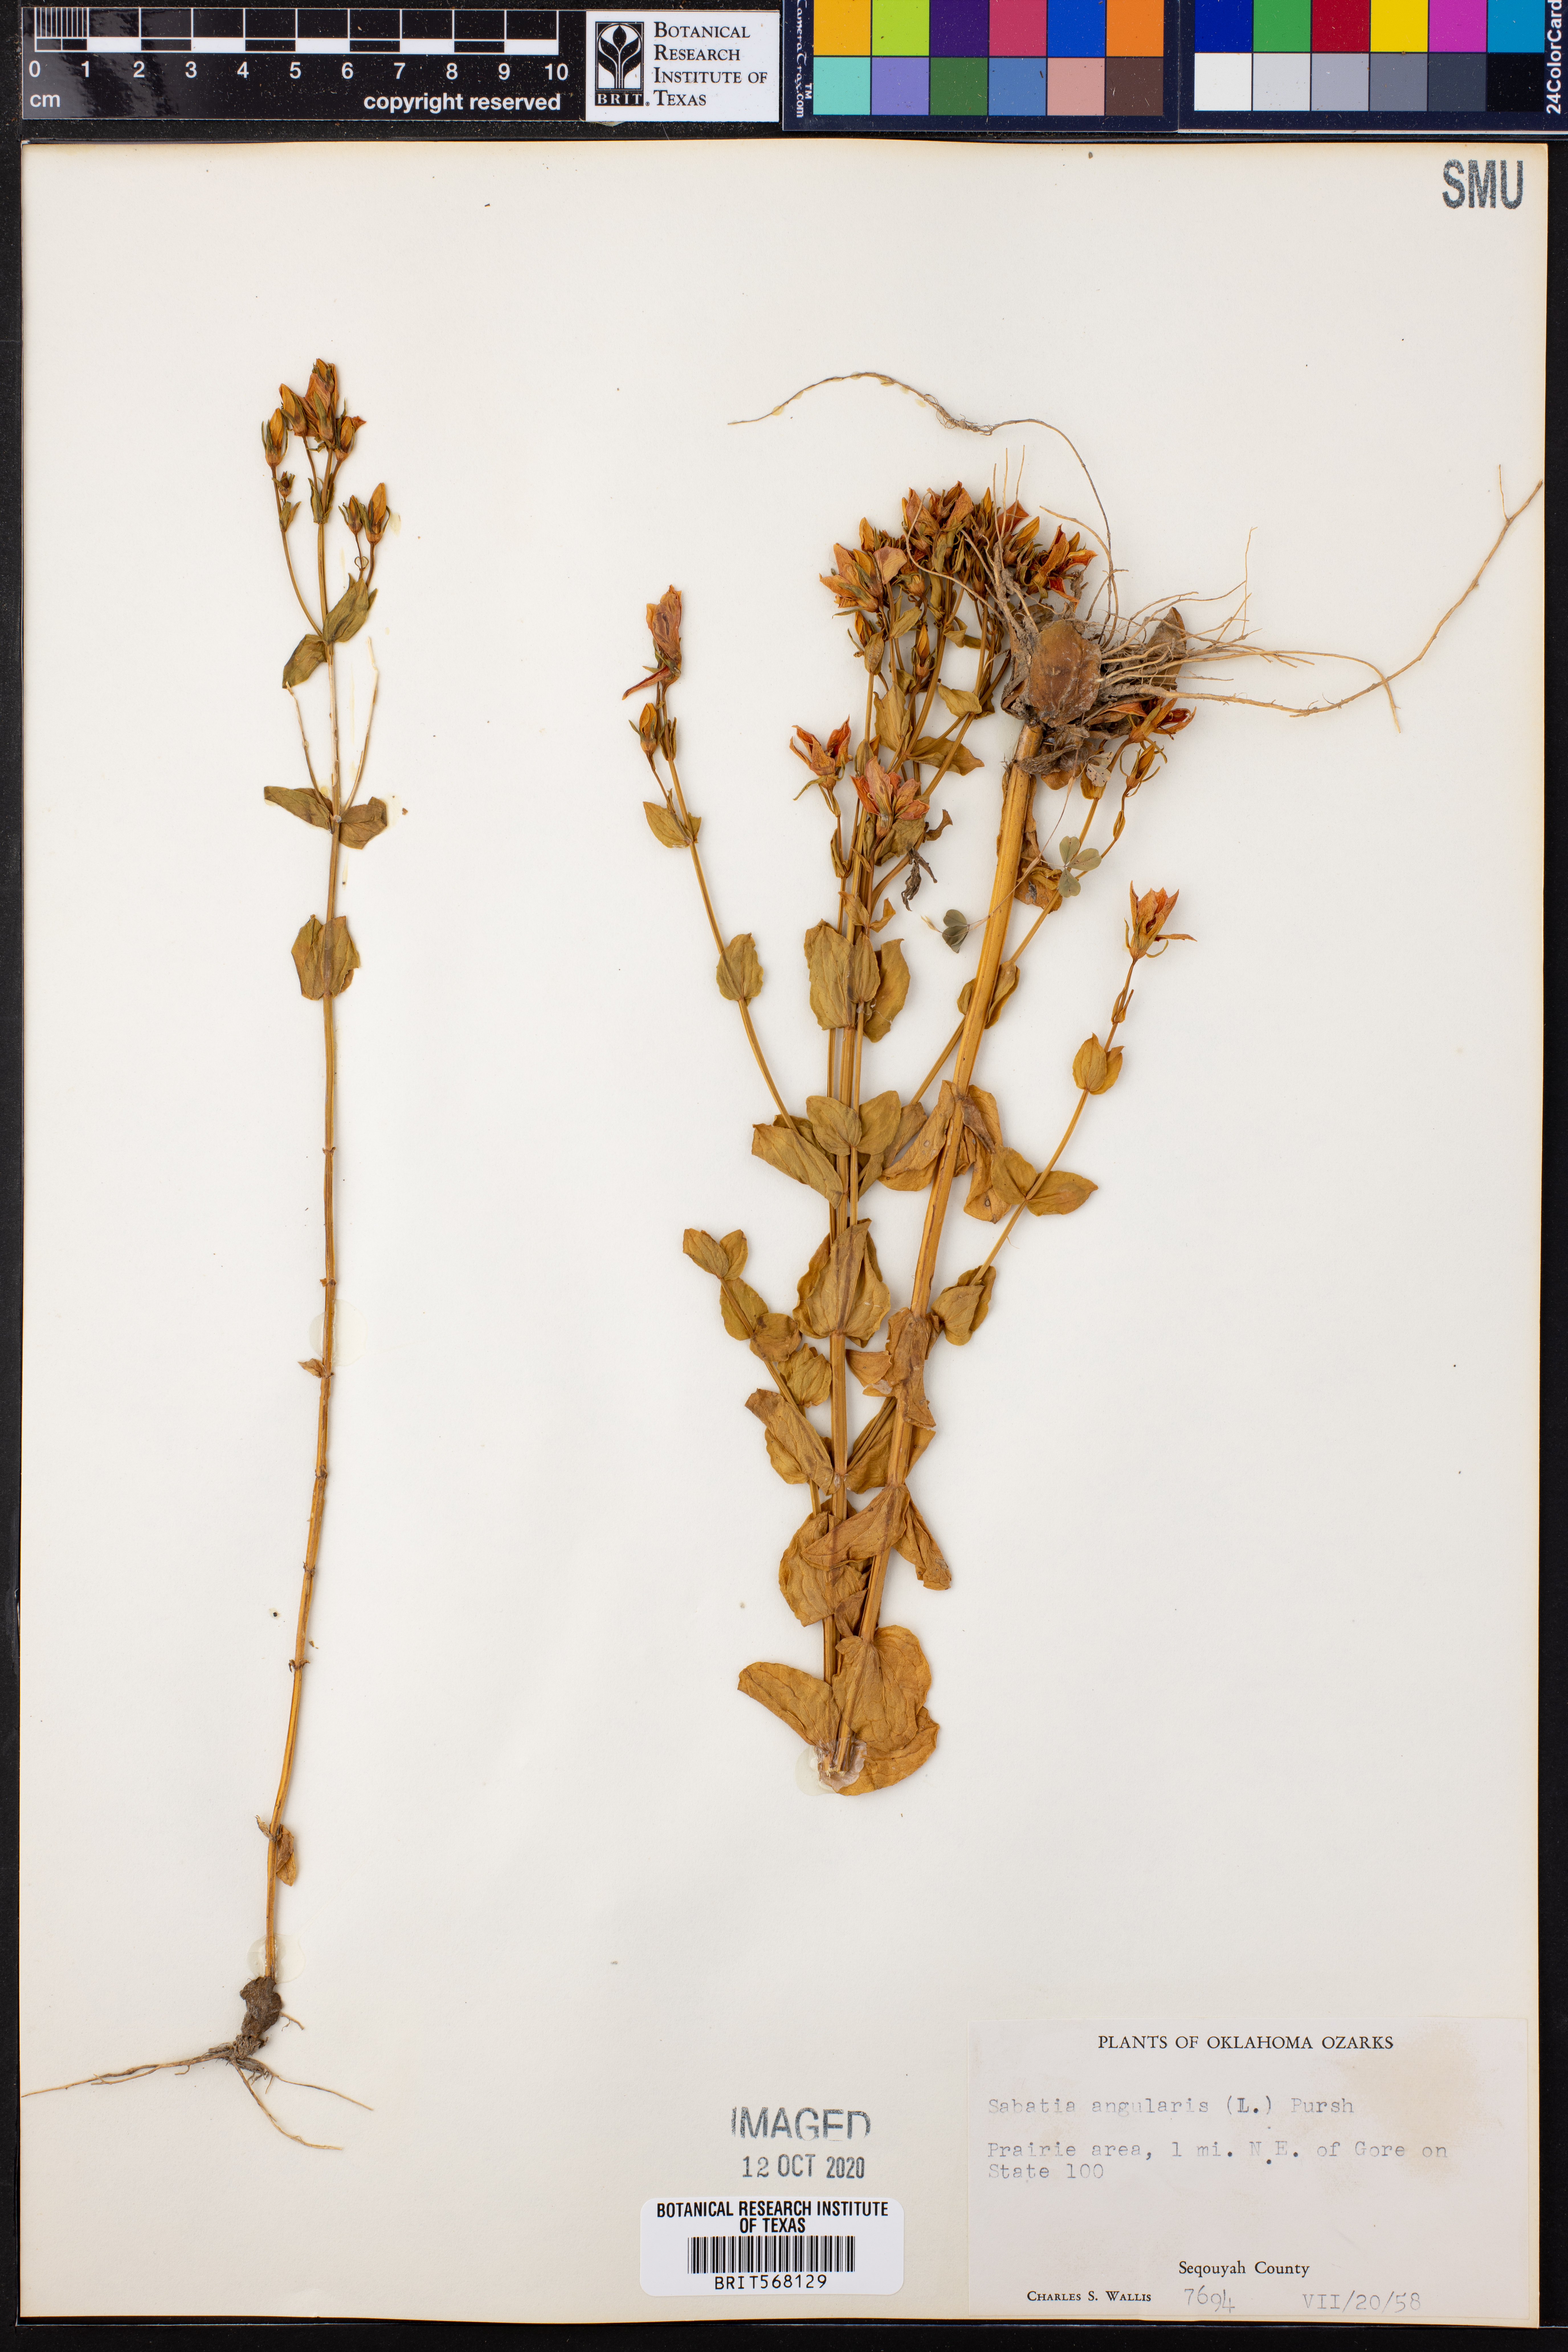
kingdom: Plantae
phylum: Tracheophyta
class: Magnoliopsida
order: Gentianales
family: Gentianaceae
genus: Sabatia
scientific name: Sabatia angularis
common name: Rose-pink
